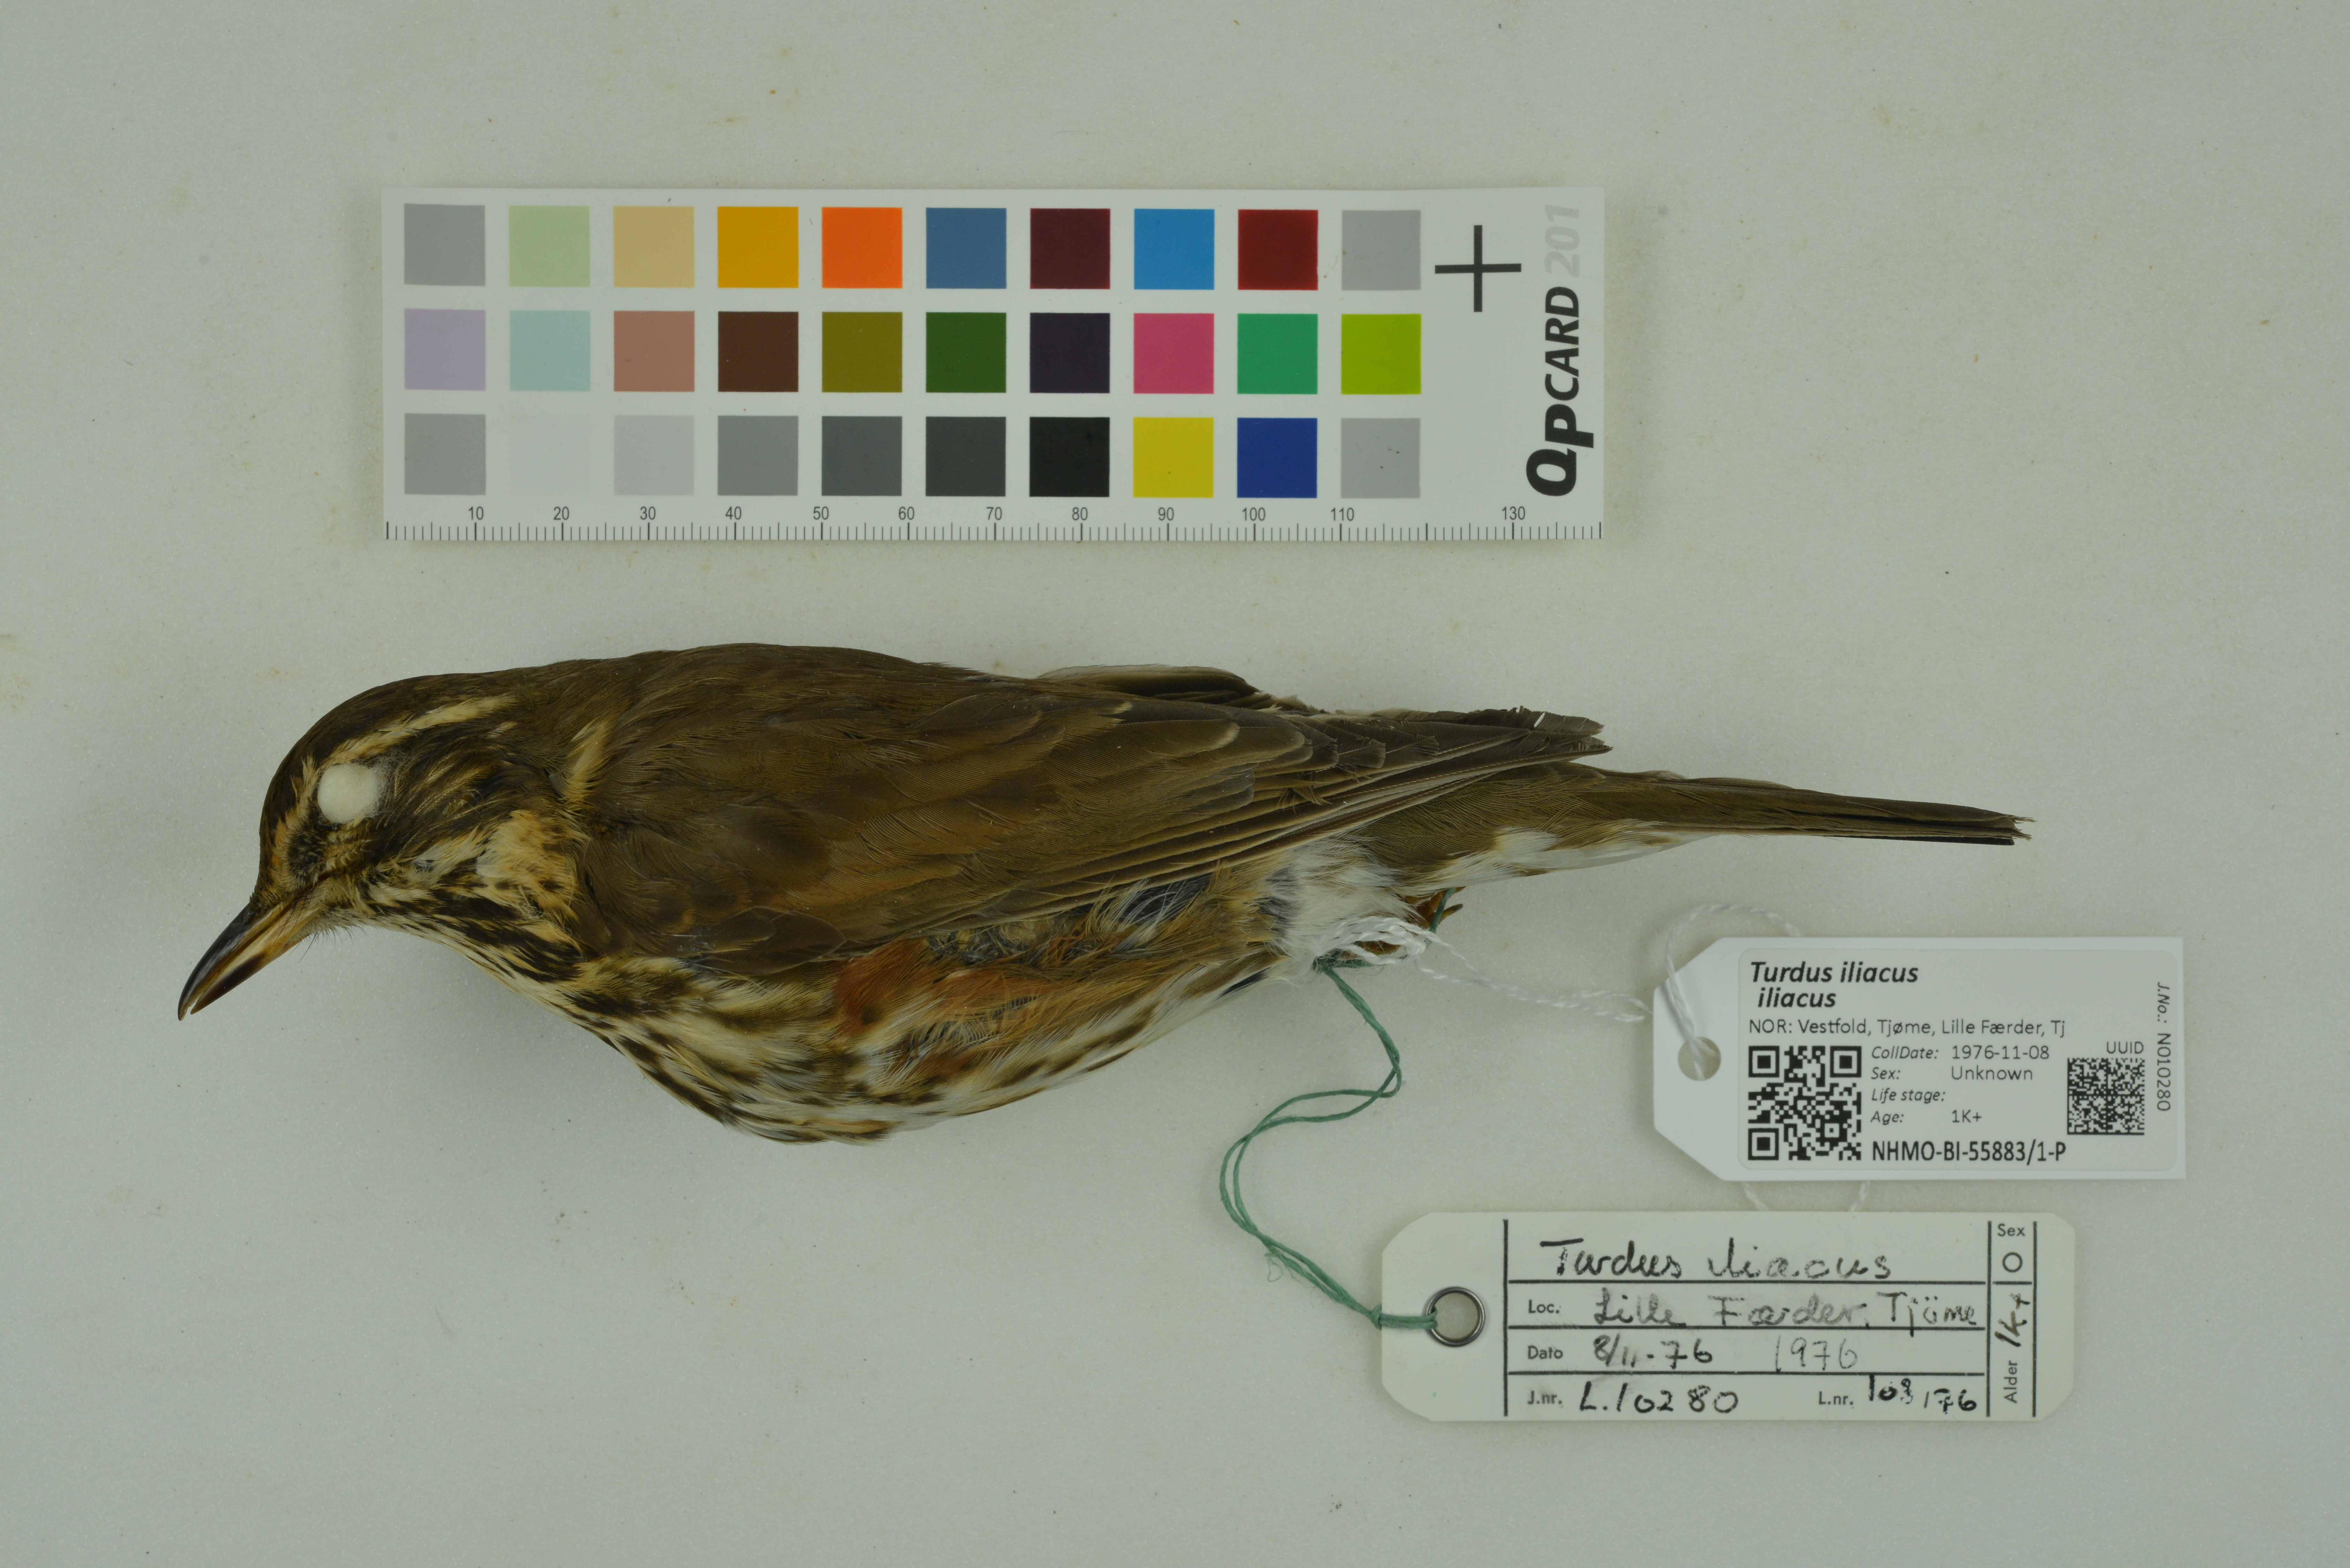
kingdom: Animalia
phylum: Chordata
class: Aves
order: Passeriformes
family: Turdidae
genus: Turdus
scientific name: Turdus iliacus
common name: Redwing
